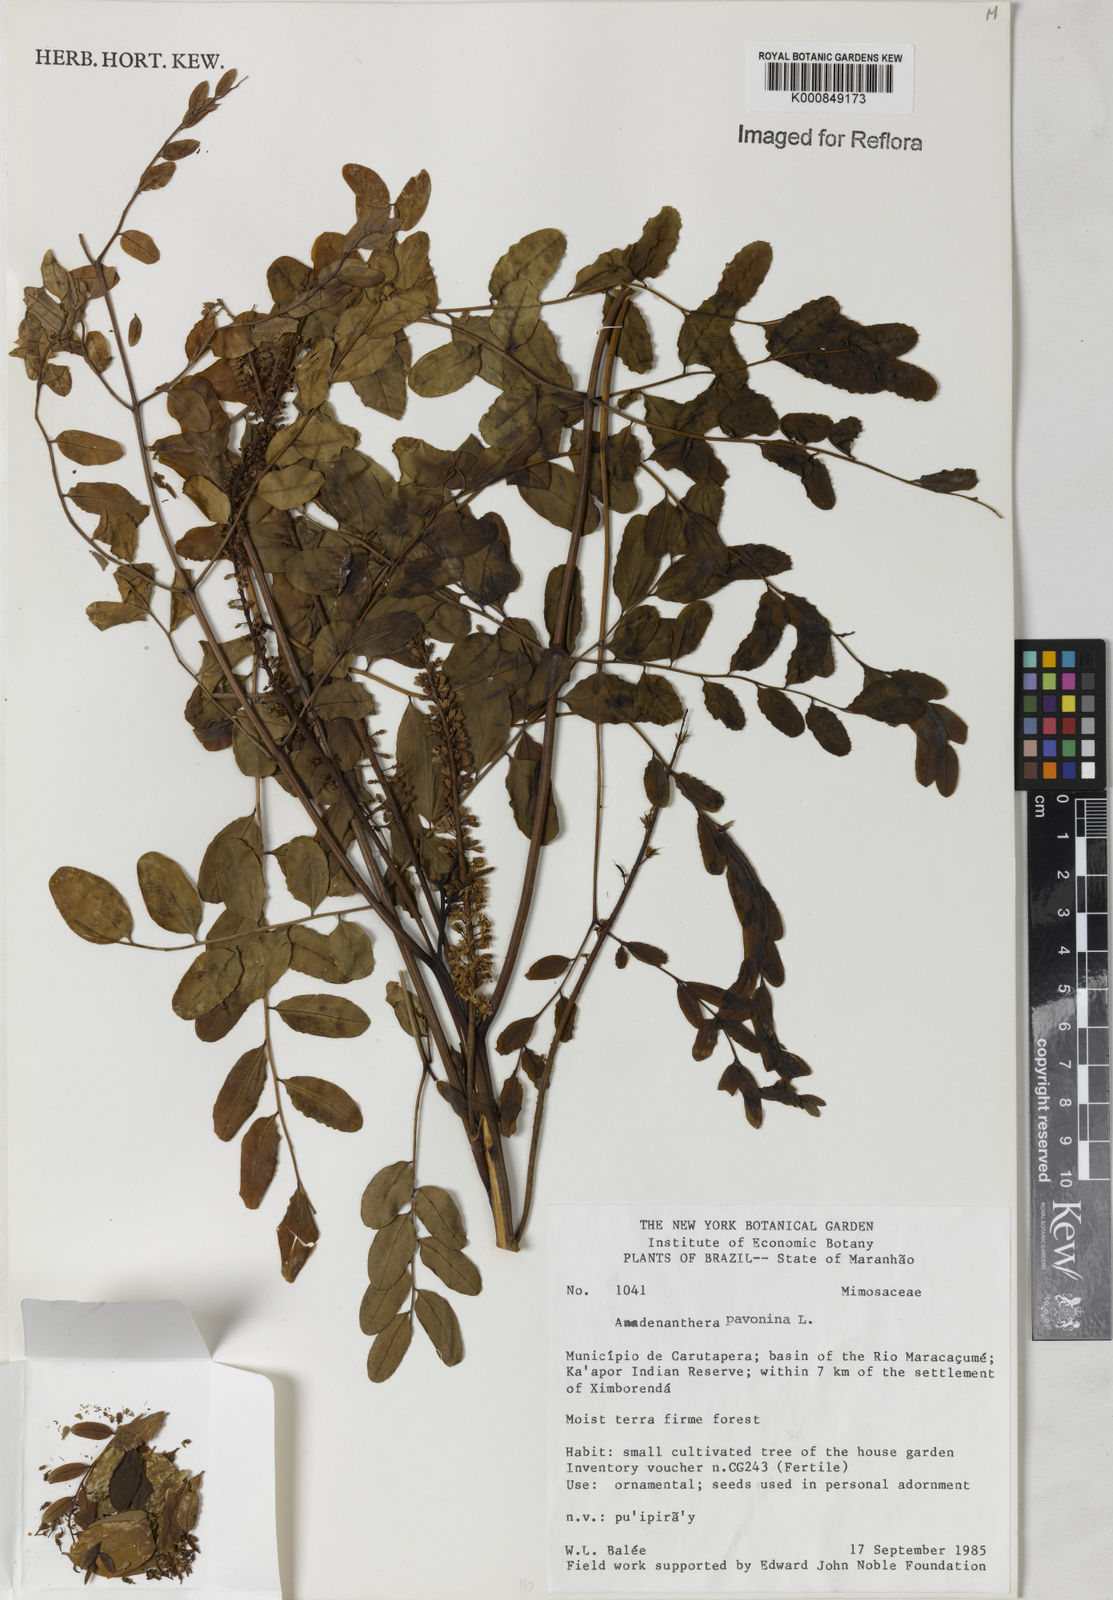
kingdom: Plantae
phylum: Tracheophyta
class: Magnoliopsida
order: Fabales
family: Fabaceae
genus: Adenanthera
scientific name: Adenanthera pavonina
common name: Red beadtree
